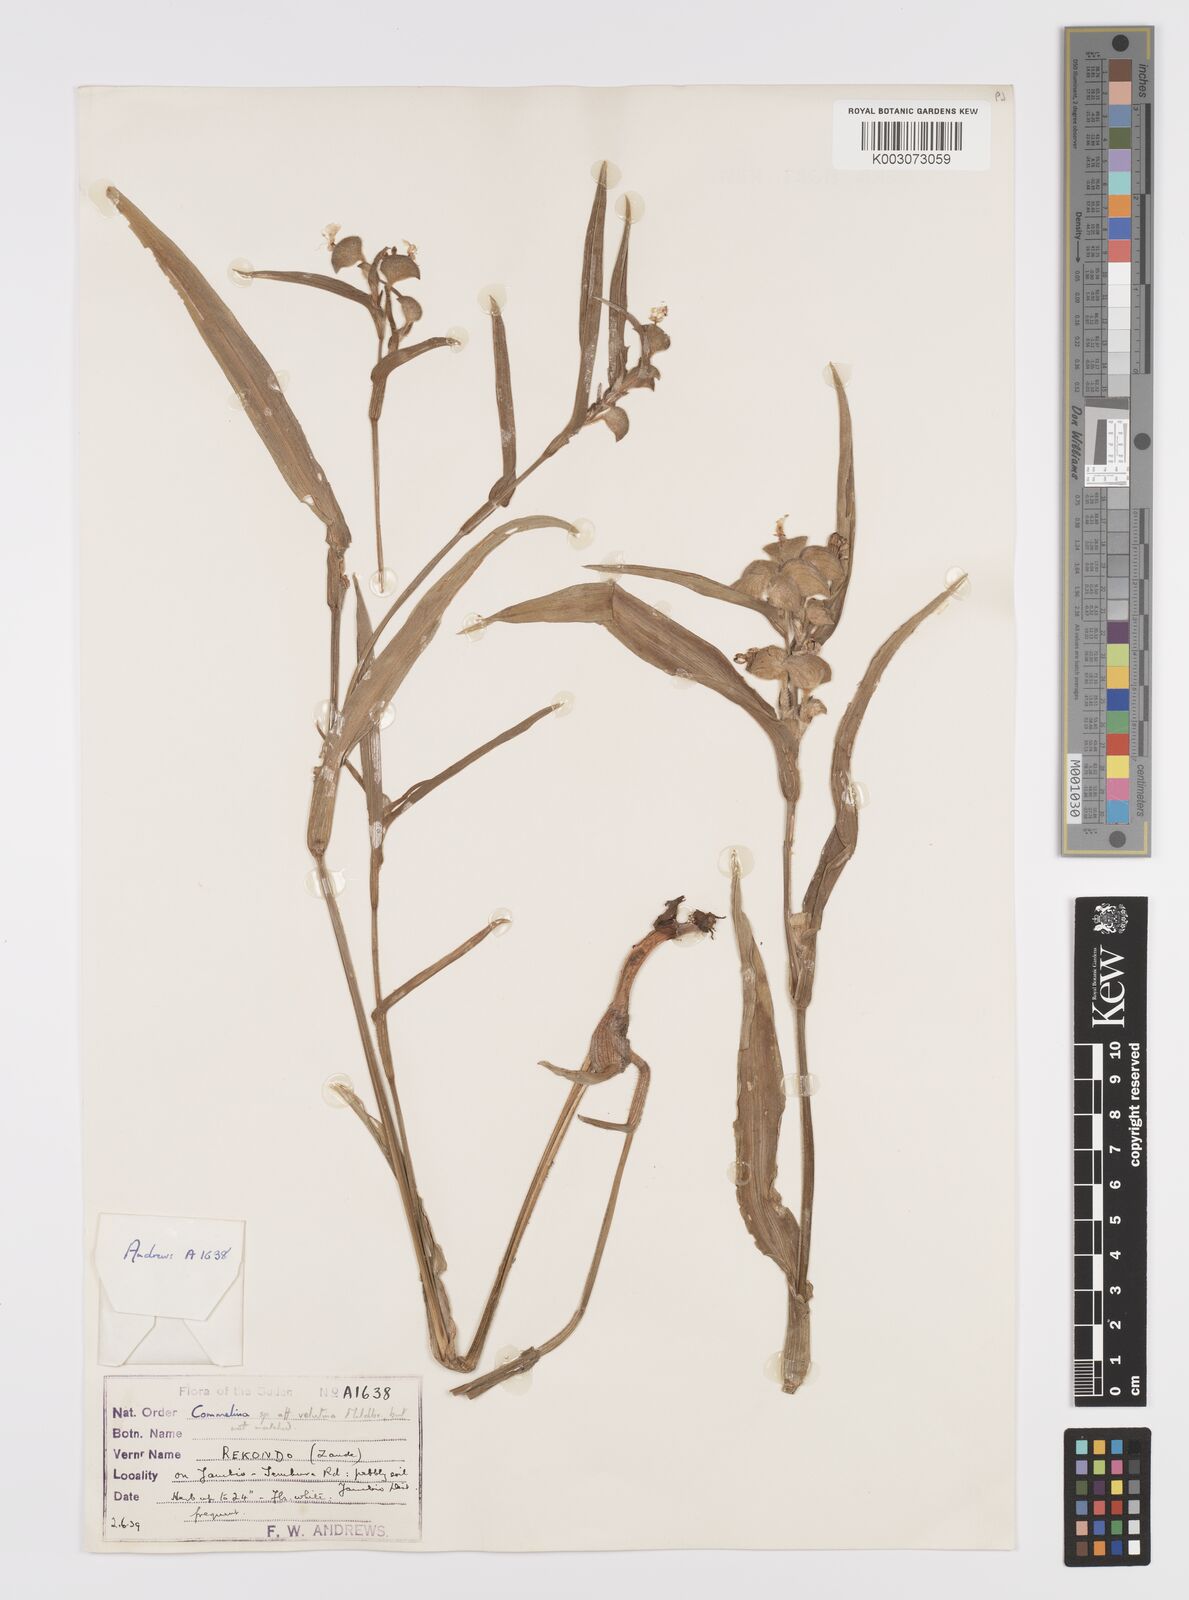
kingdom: Plantae
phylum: Tracheophyta
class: Liliopsida
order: Commelinales
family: Commelinaceae
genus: Commelina
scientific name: Commelina velutina
